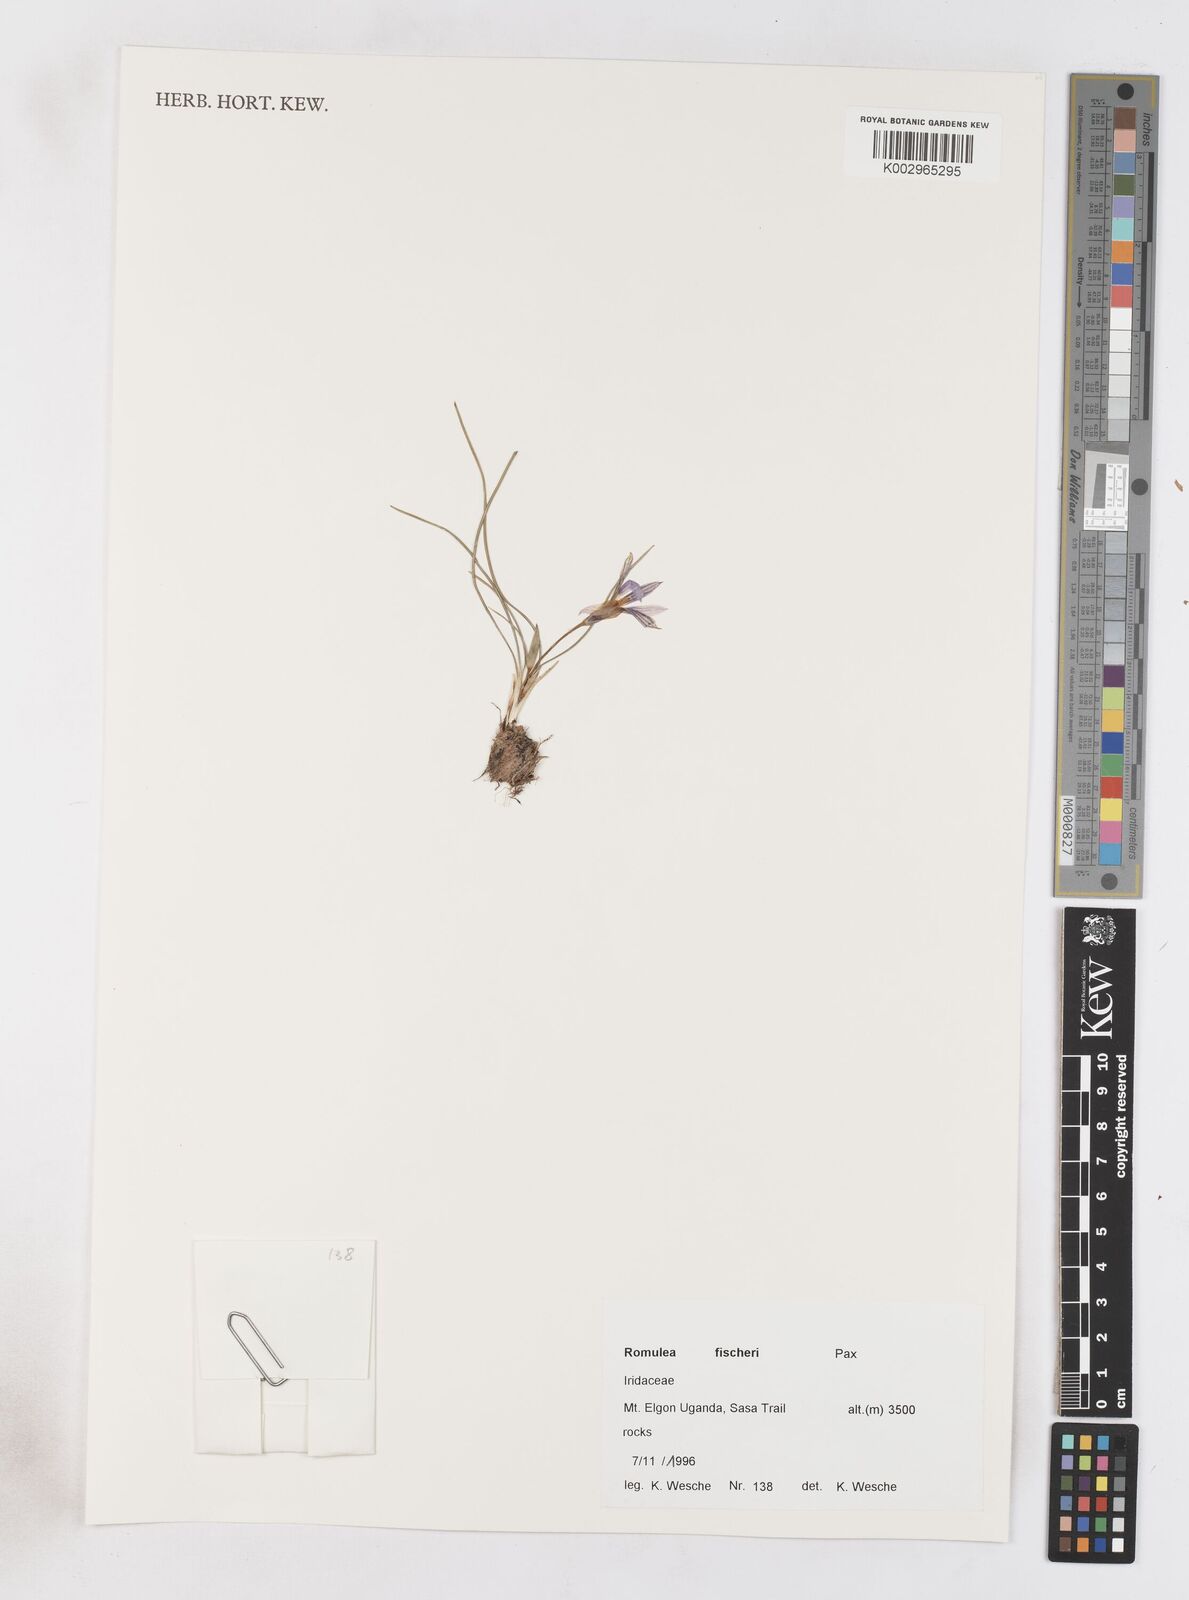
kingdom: Plantae
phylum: Tracheophyta
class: Liliopsida
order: Asparagales
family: Iridaceae
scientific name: Iridaceae
